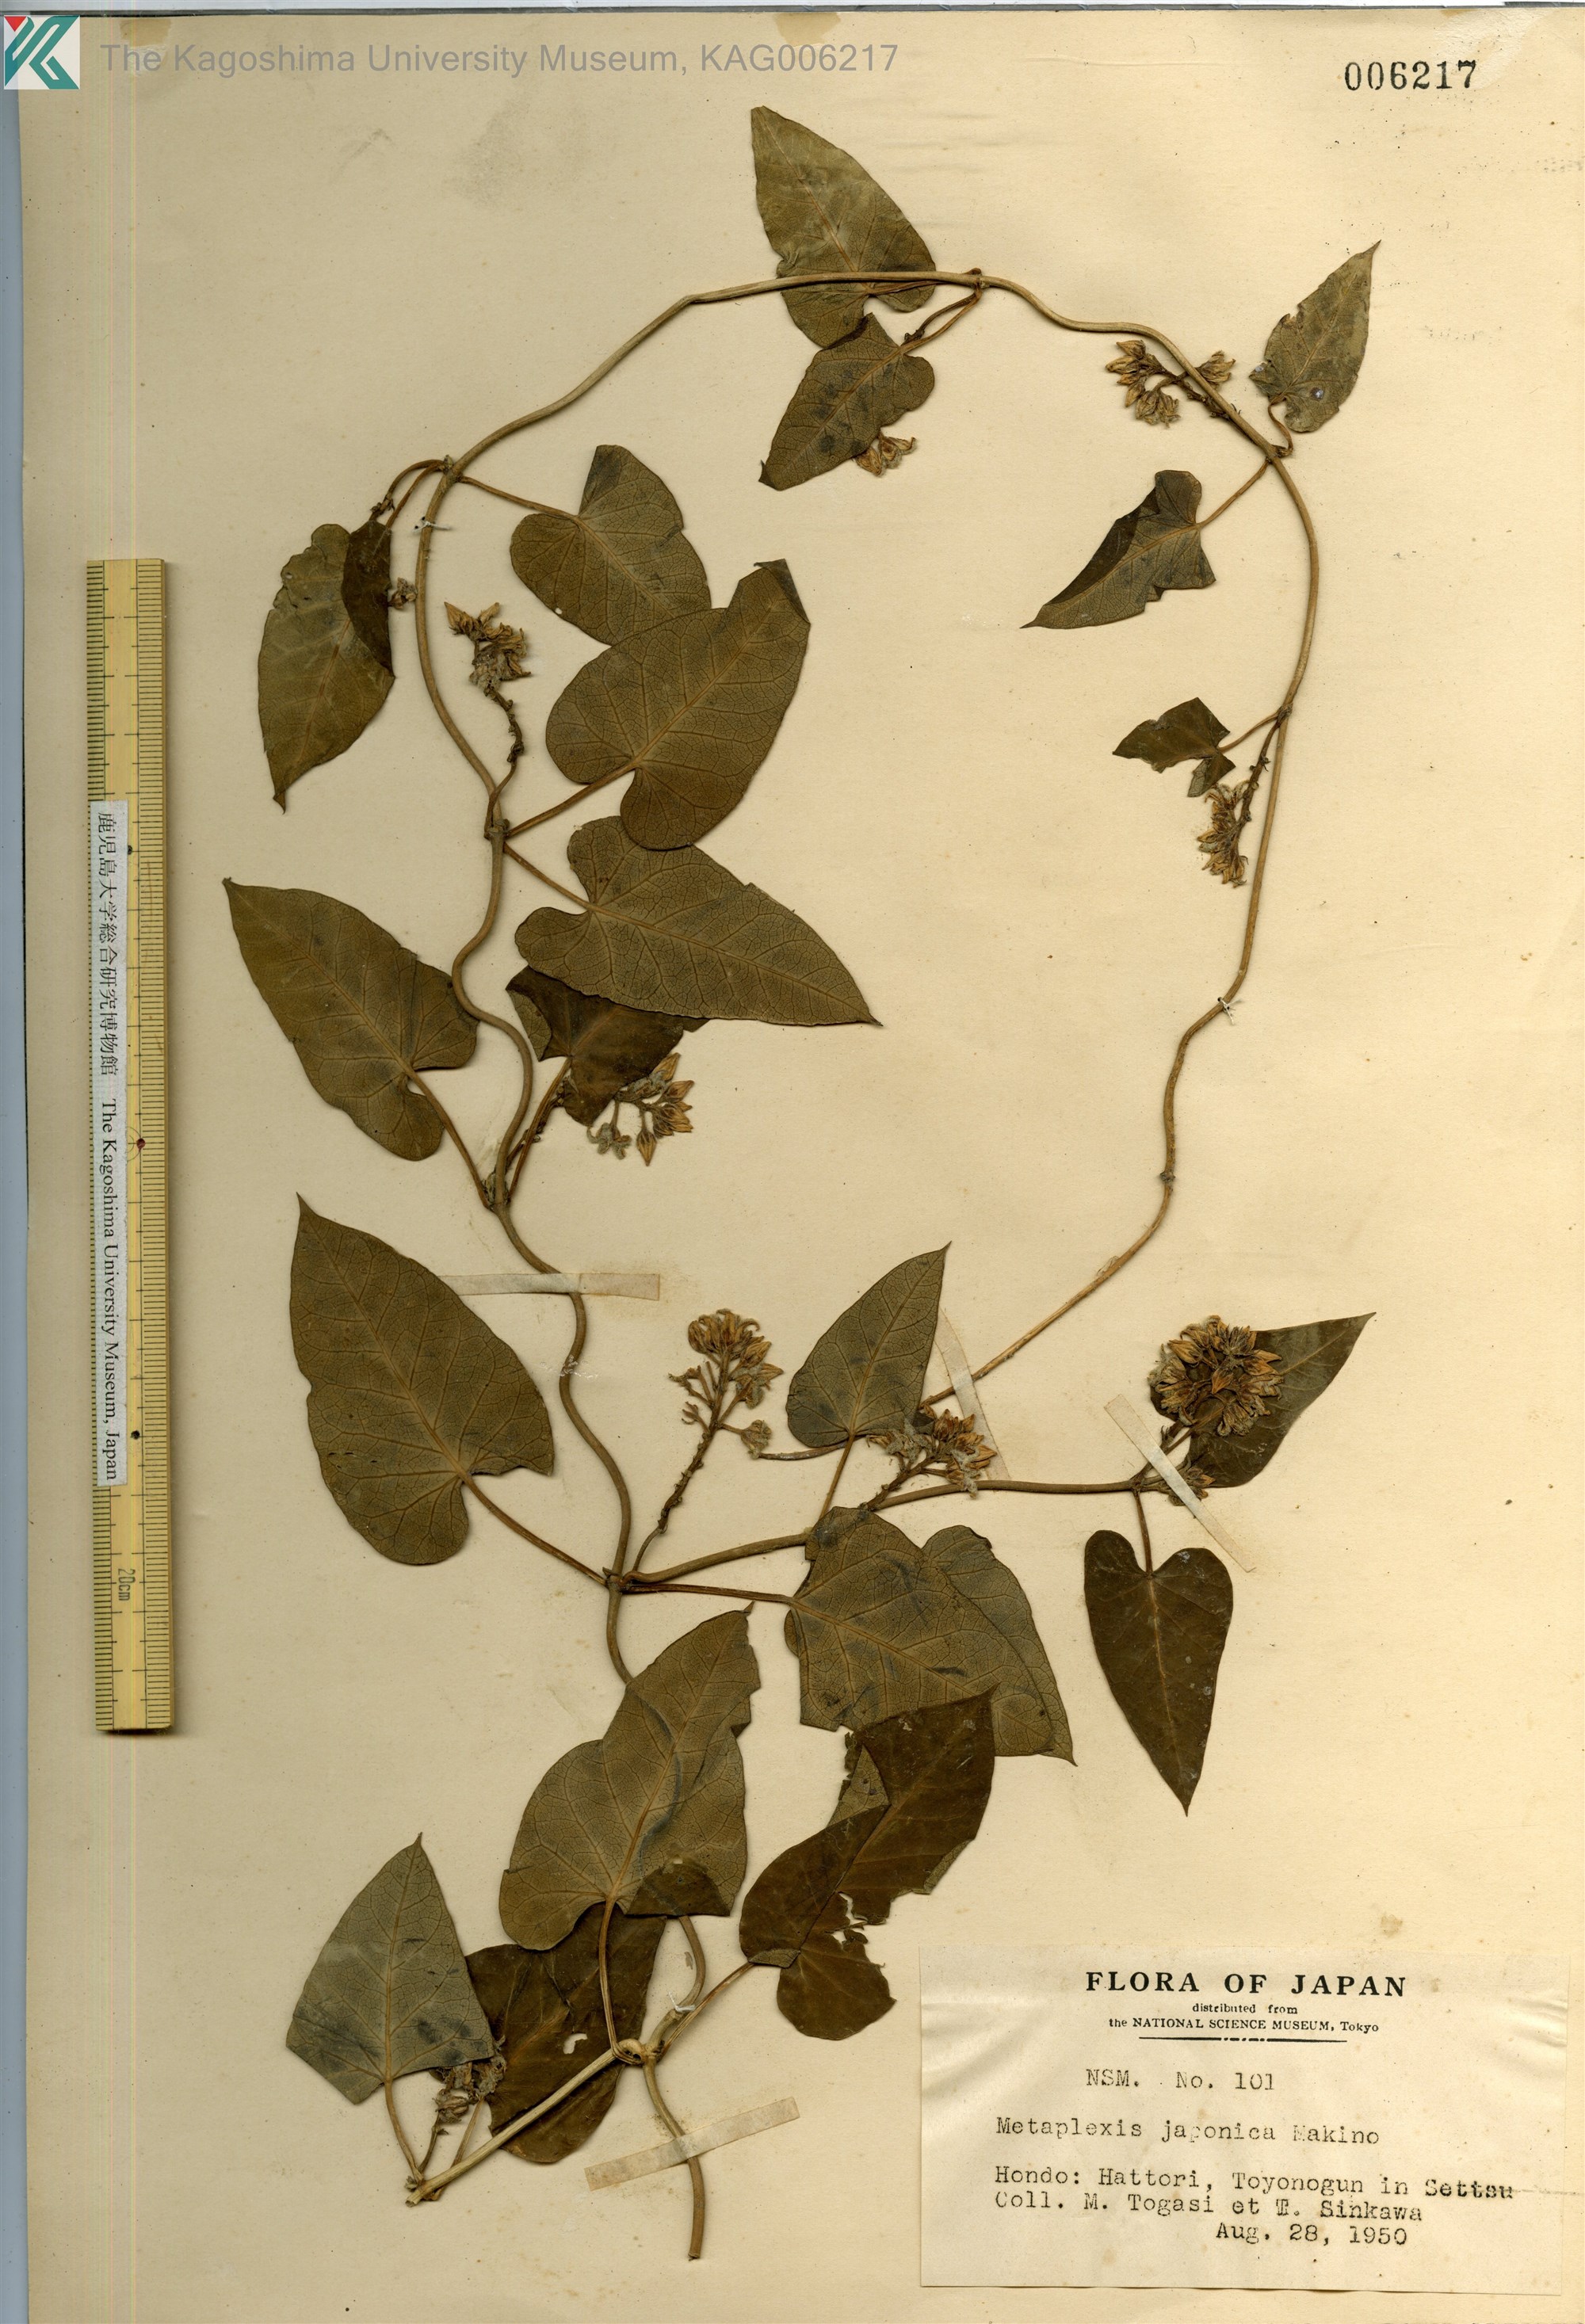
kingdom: Plantae
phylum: Tracheophyta
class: Magnoliopsida
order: Gentianales
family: Apocynaceae
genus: Cynanchum
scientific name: Cynanchum rostellatum
